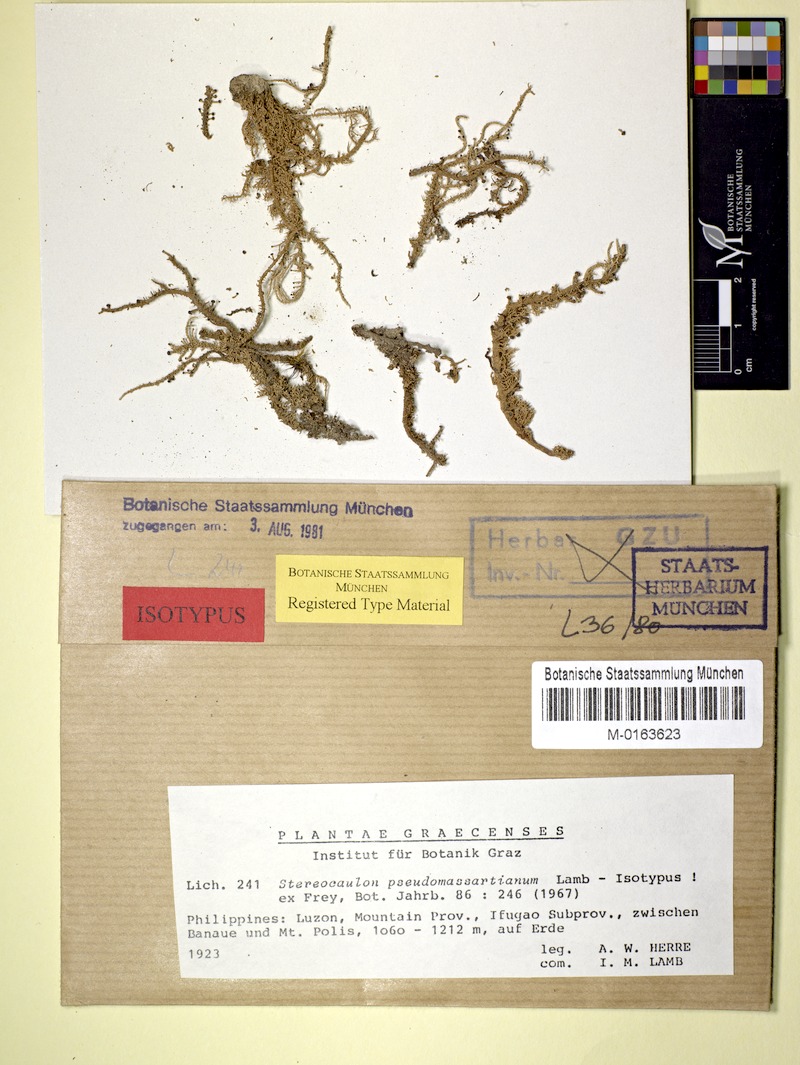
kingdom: Fungi
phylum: Ascomycota
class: Lecanoromycetes
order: Lecanorales
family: Stereocaulaceae
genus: Stereocaulon
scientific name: Stereocaulon pseudomassartianum
